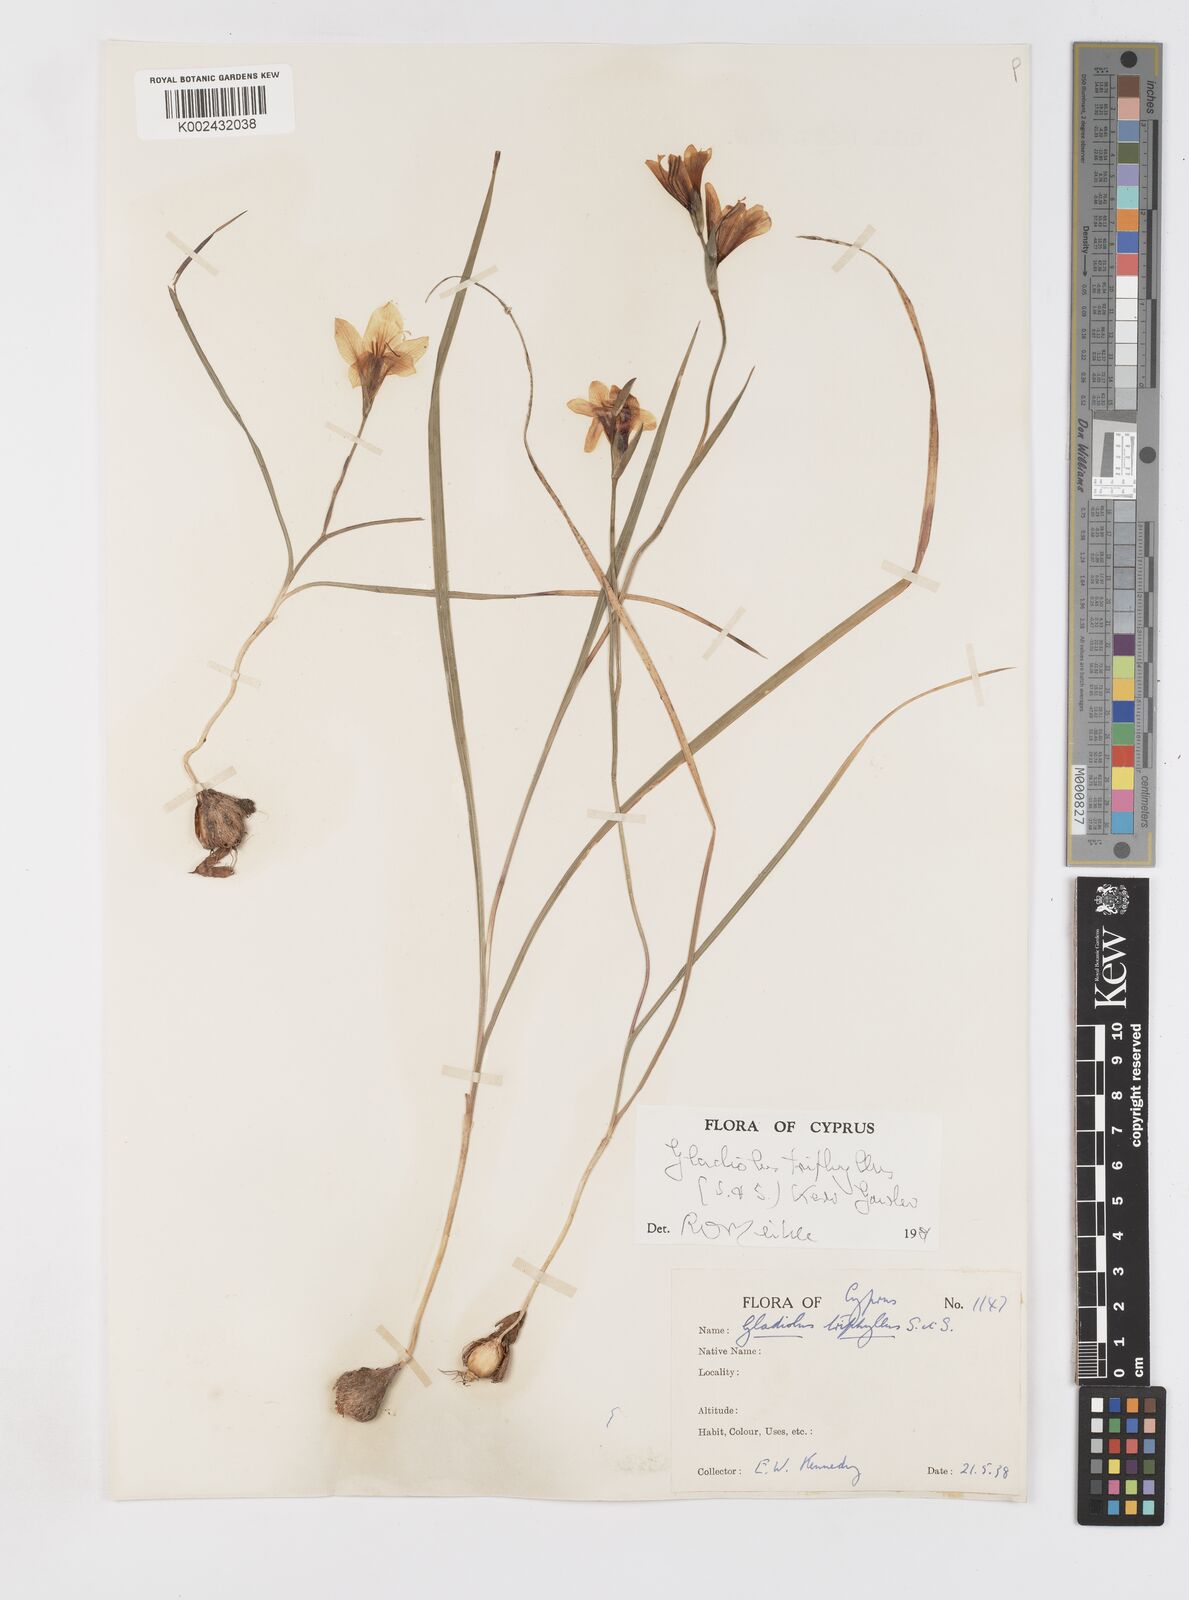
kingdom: Plantae
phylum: Tracheophyta
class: Liliopsida
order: Asparagales
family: Iridaceae
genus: Gladiolus
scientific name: Gladiolus triphyllus
